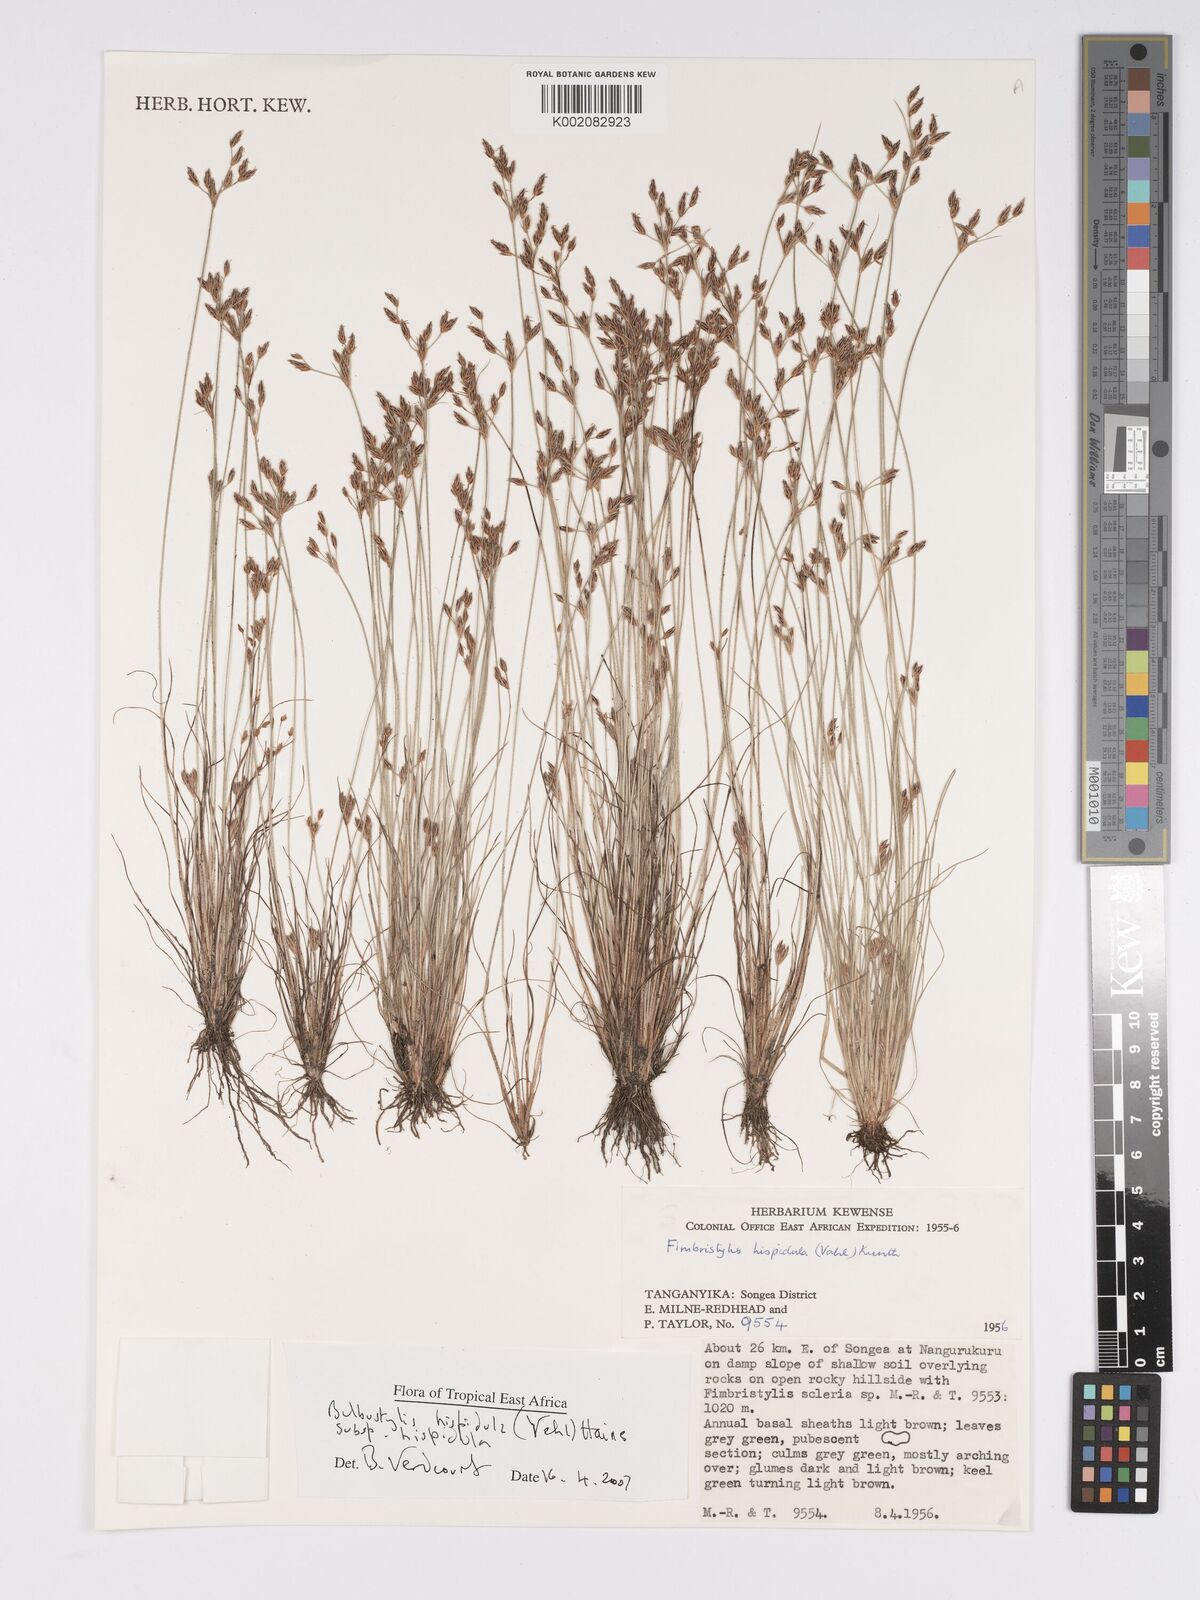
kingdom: Plantae
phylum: Tracheophyta
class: Liliopsida
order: Poales
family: Cyperaceae
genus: Bulbostylis
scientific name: Bulbostylis hispidula
